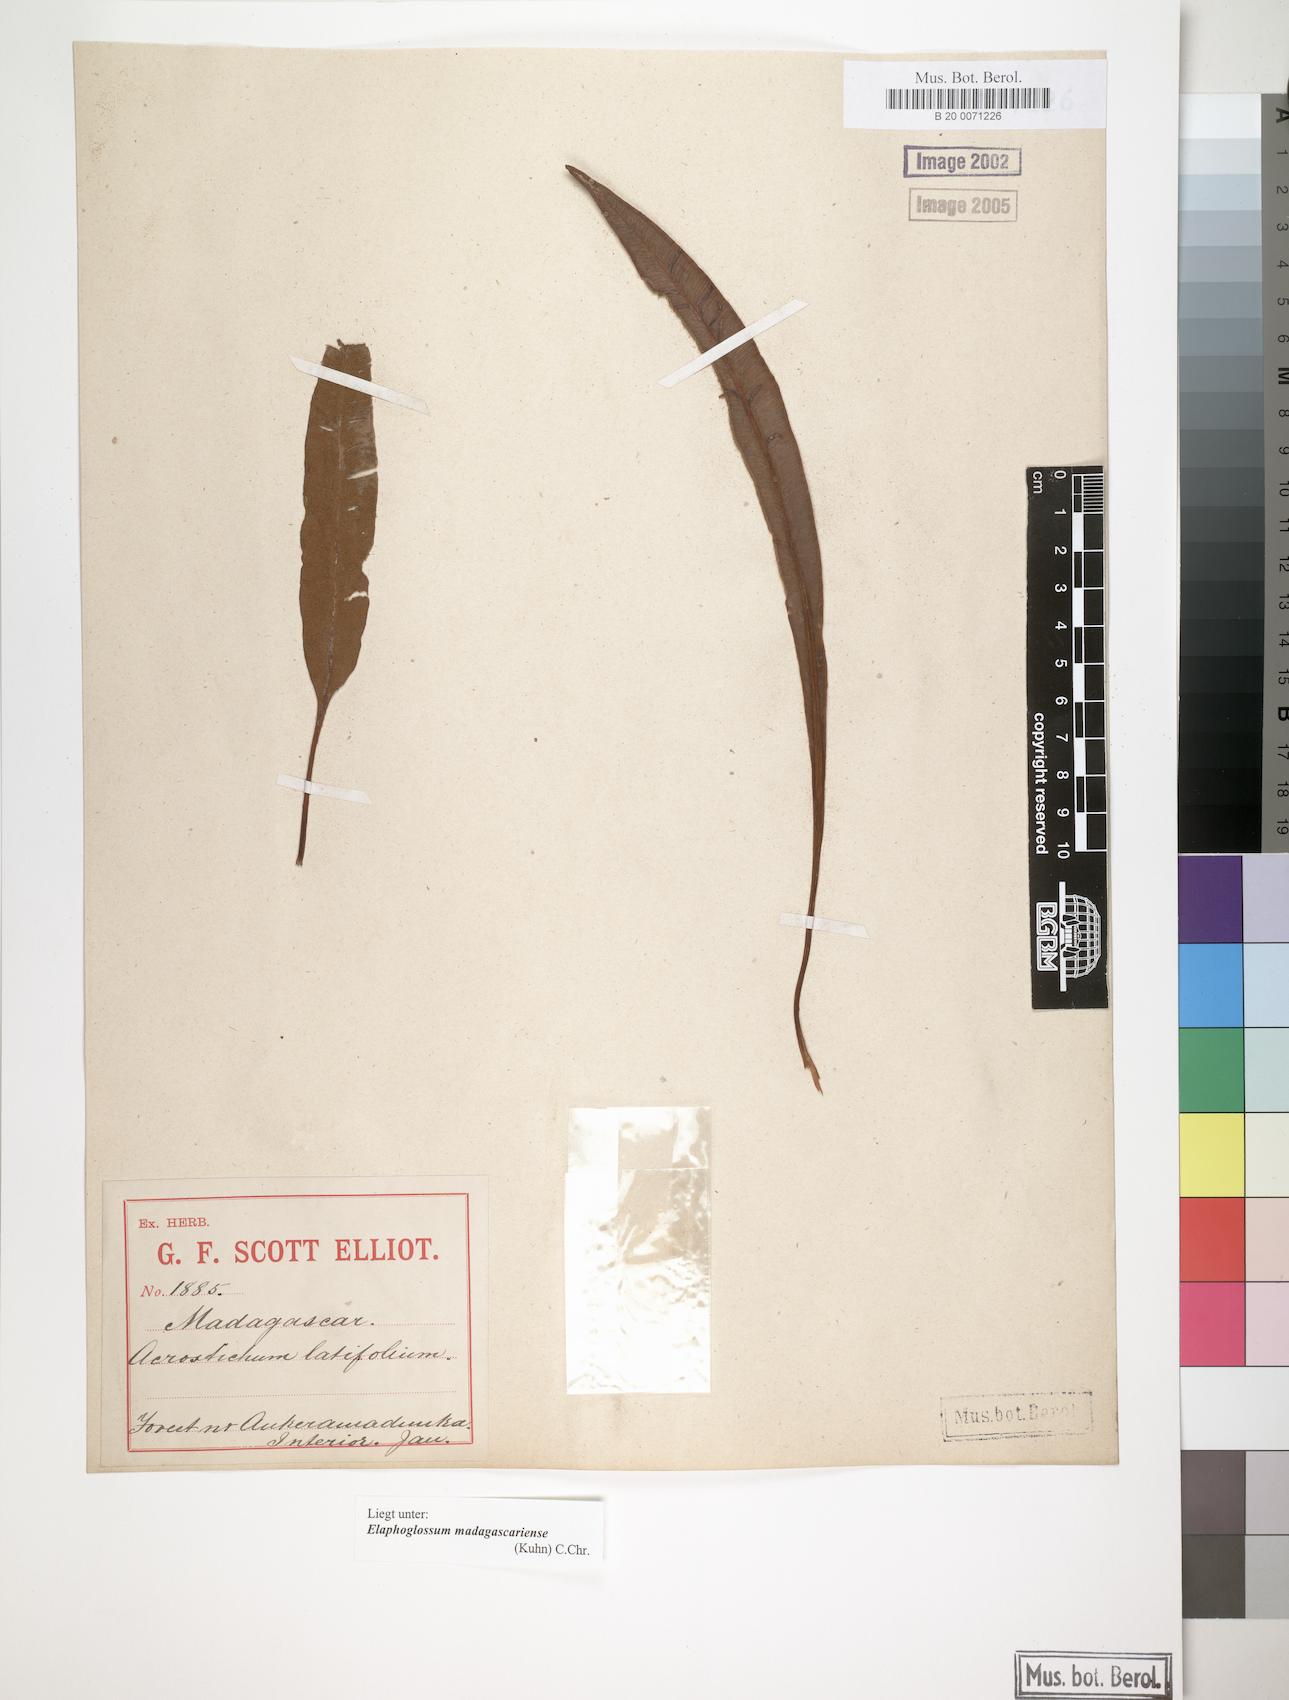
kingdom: Plantae
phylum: Tracheophyta
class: Polypodiopsida
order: Polypodiales
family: Dryopteridaceae
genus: Elaphoglossum
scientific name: Elaphoglossum subsessile
